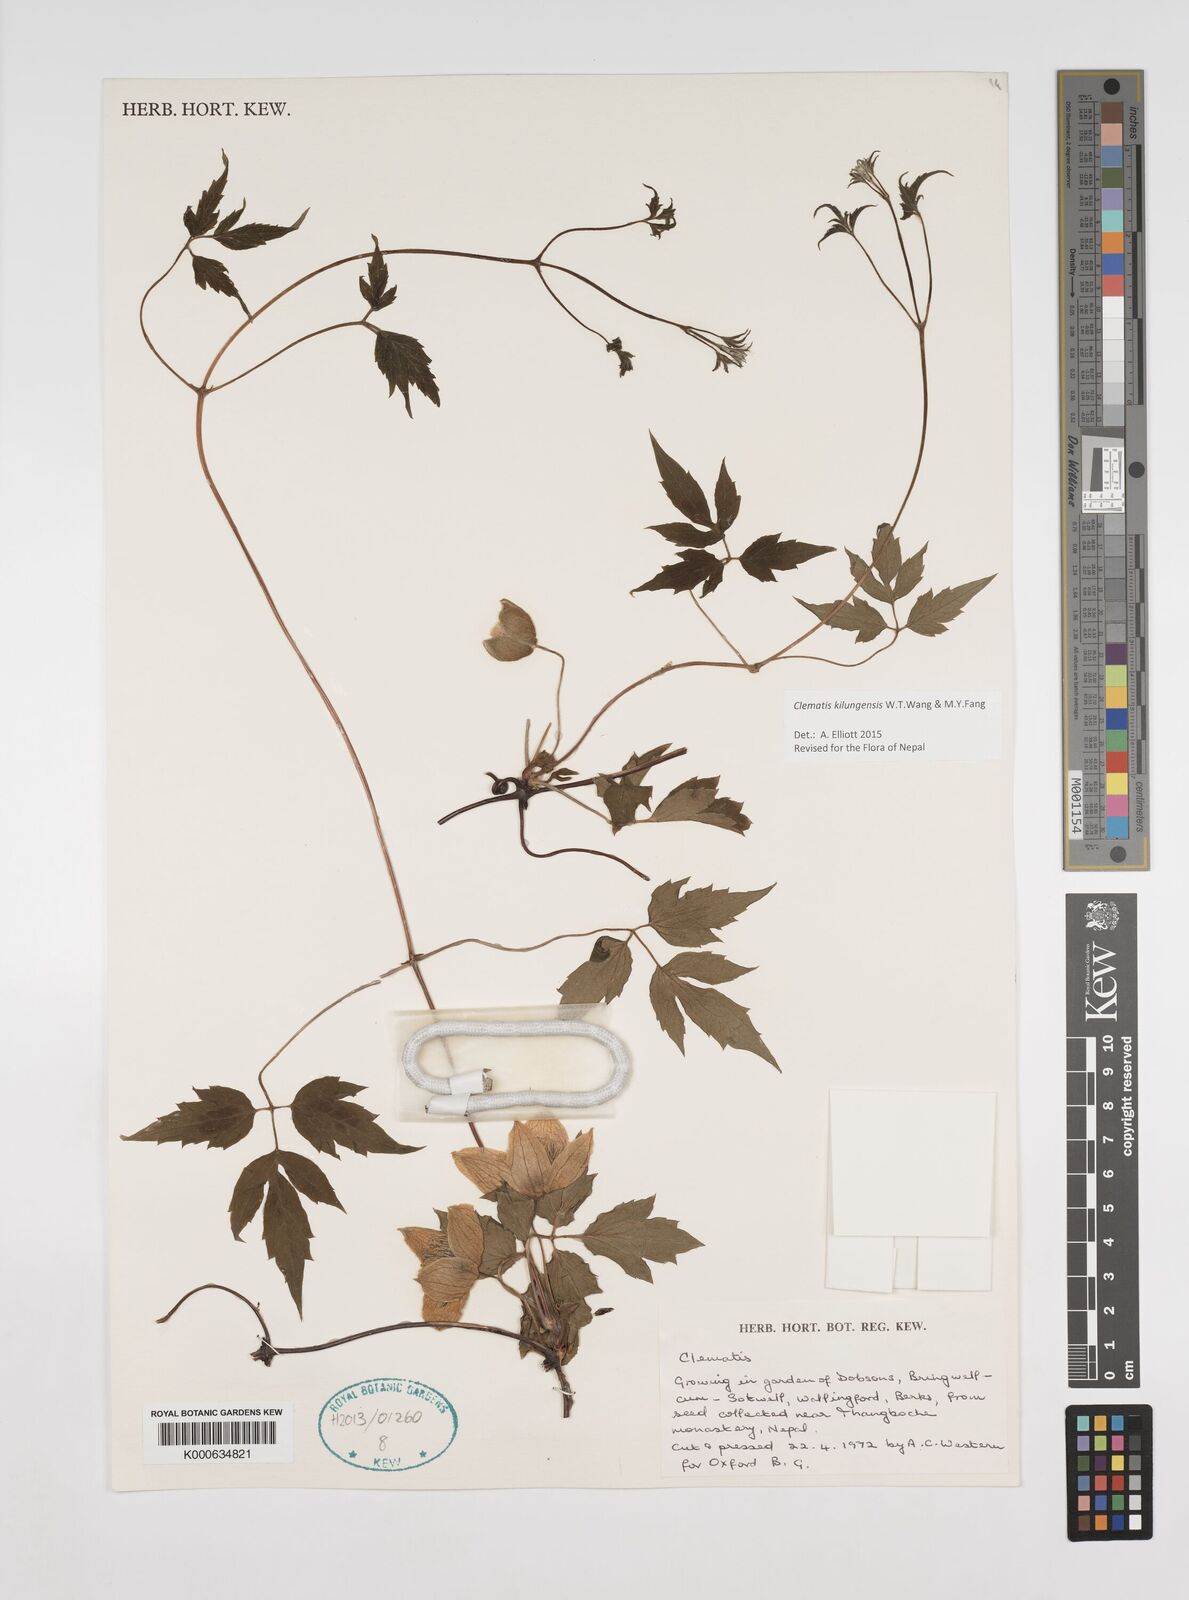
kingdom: Plantae
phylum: Tracheophyta
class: Magnoliopsida
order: Ranunculales
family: Ranunculaceae
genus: Clematis
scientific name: Clematis barbellata
